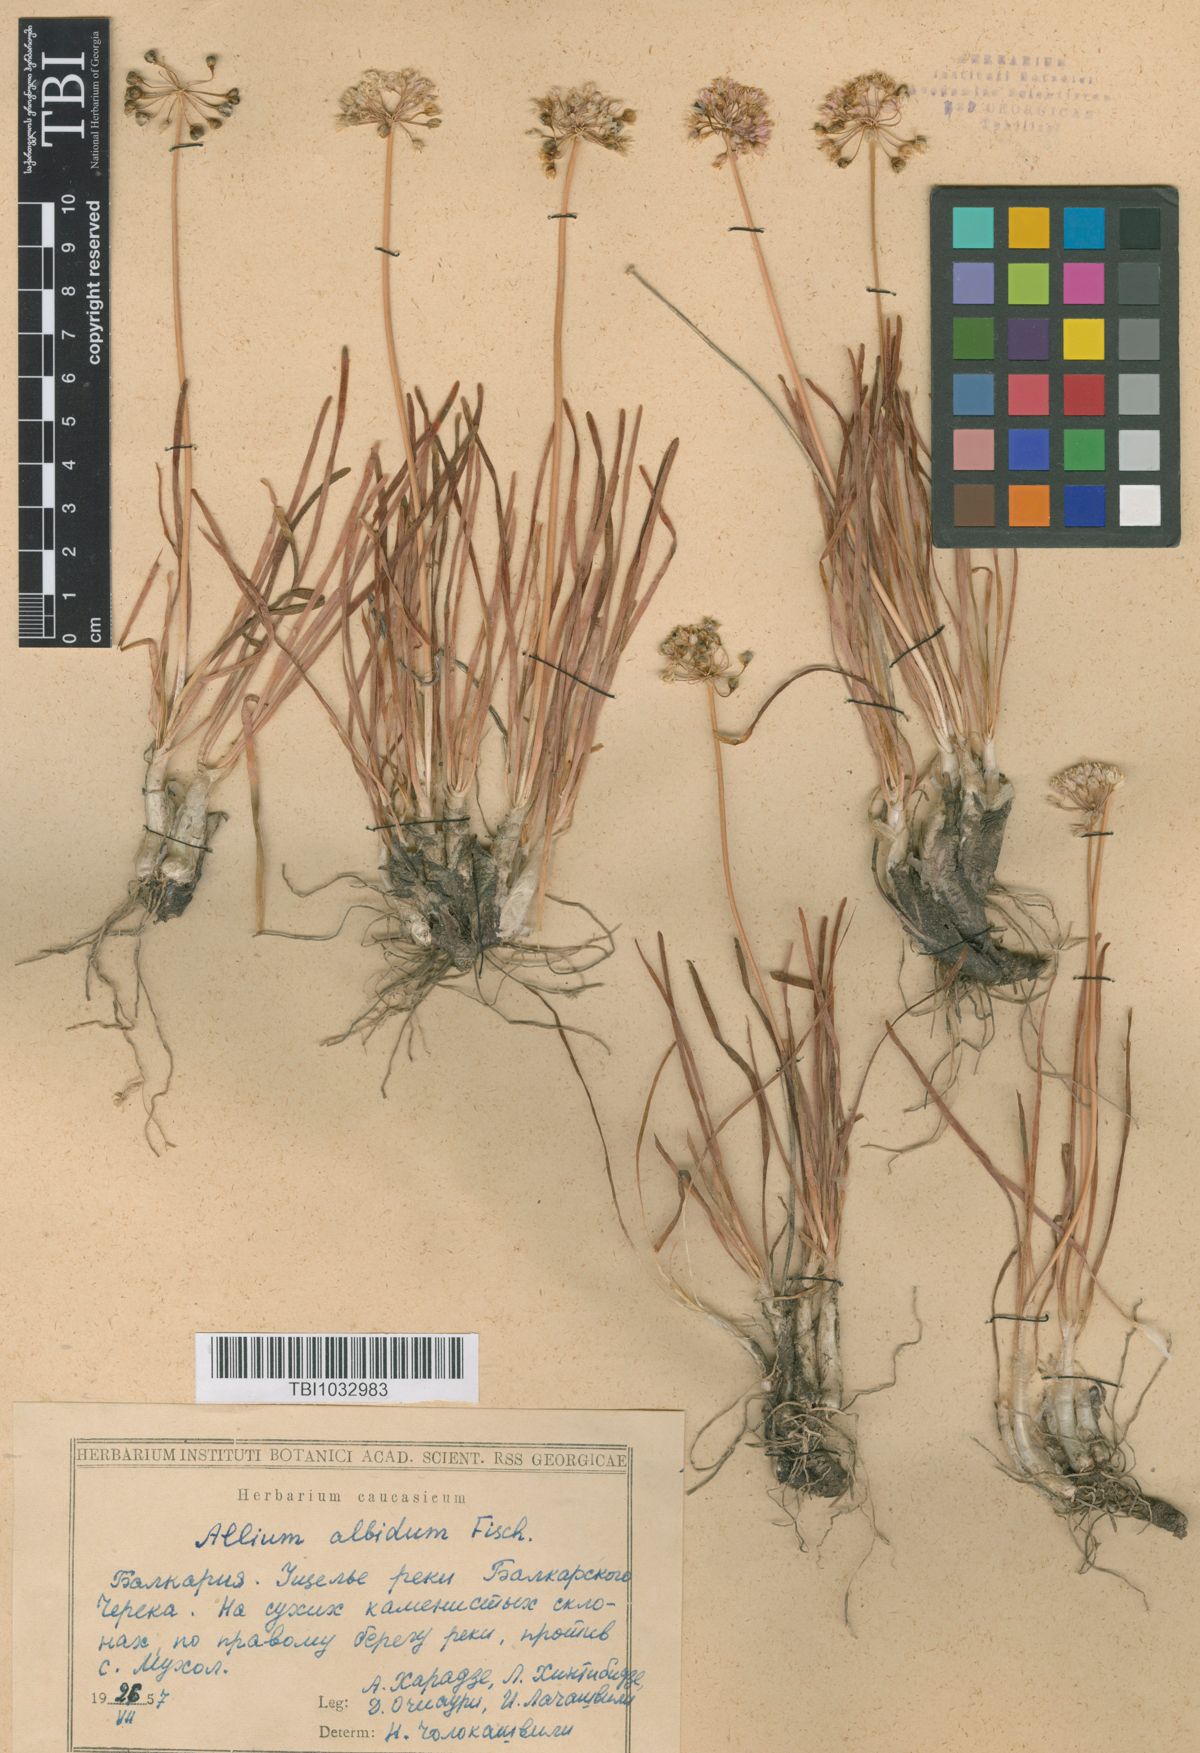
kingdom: Plantae
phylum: Tracheophyta
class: Liliopsida
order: Asparagales
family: Amaryllidaceae
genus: Allium
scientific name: Allium denudatum
